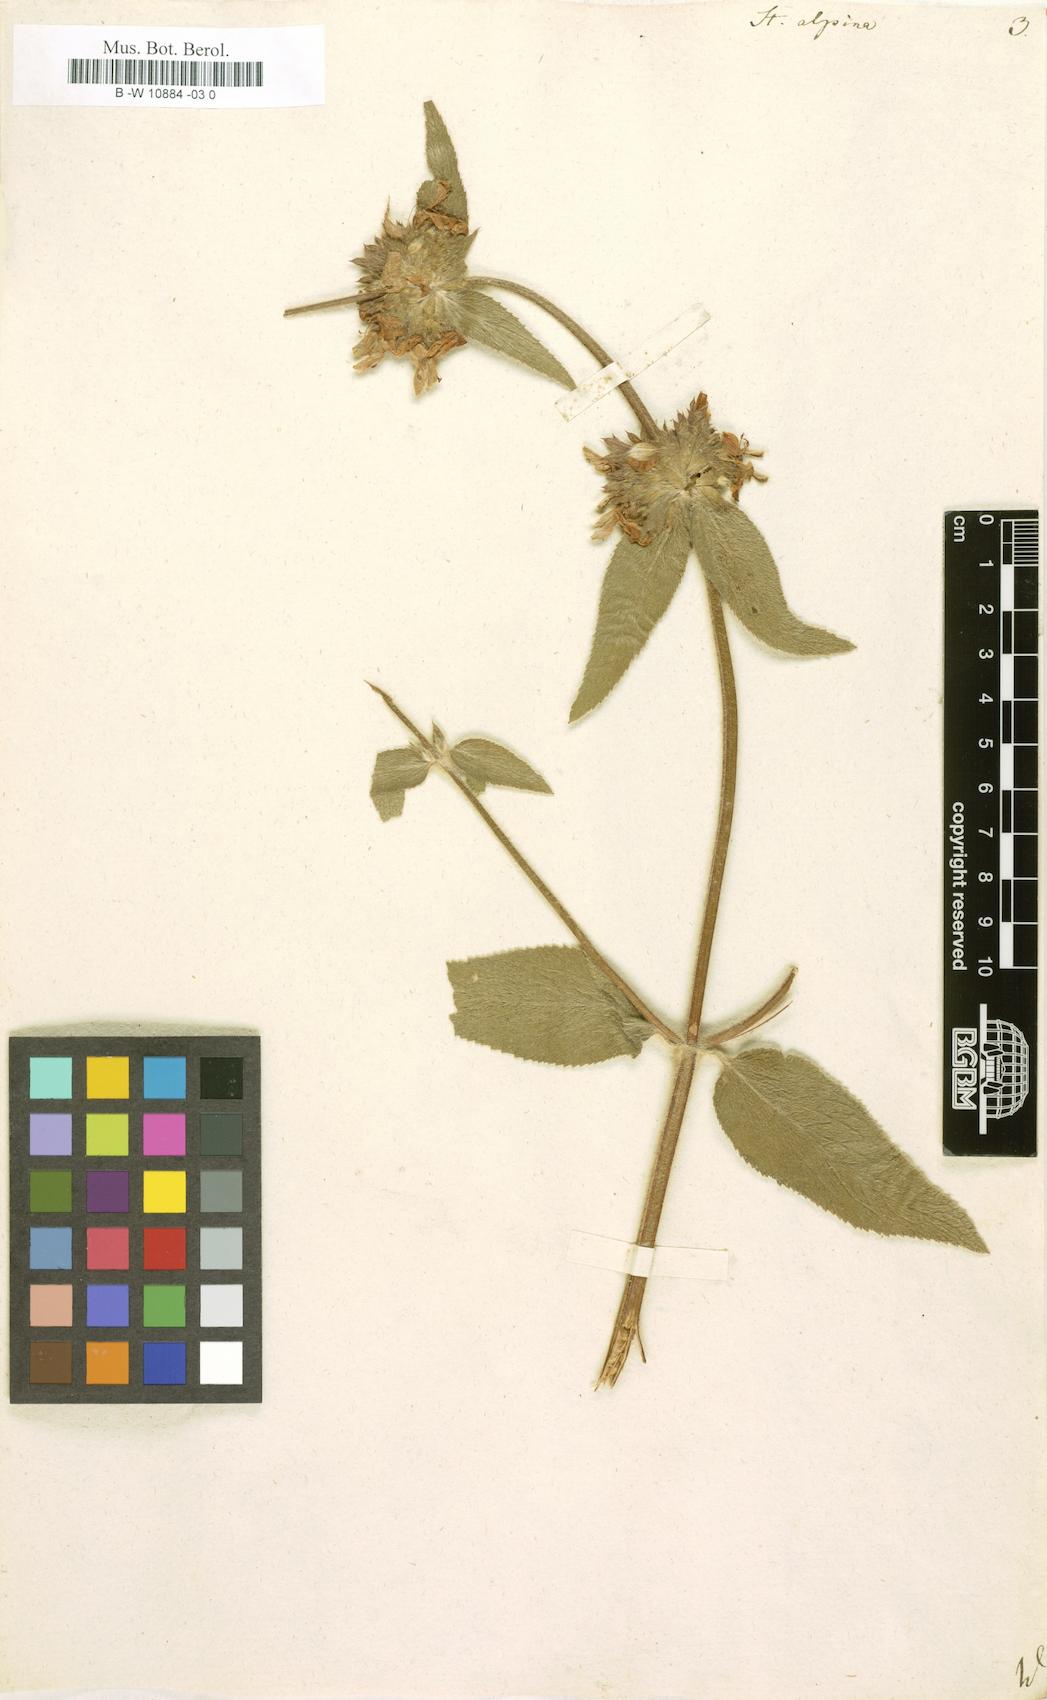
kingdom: Plantae
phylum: Tracheophyta
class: Magnoliopsida
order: Lamiales
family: Lamiaceae
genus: Stachys
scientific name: Stachys alpina
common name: Limestone woundwort
